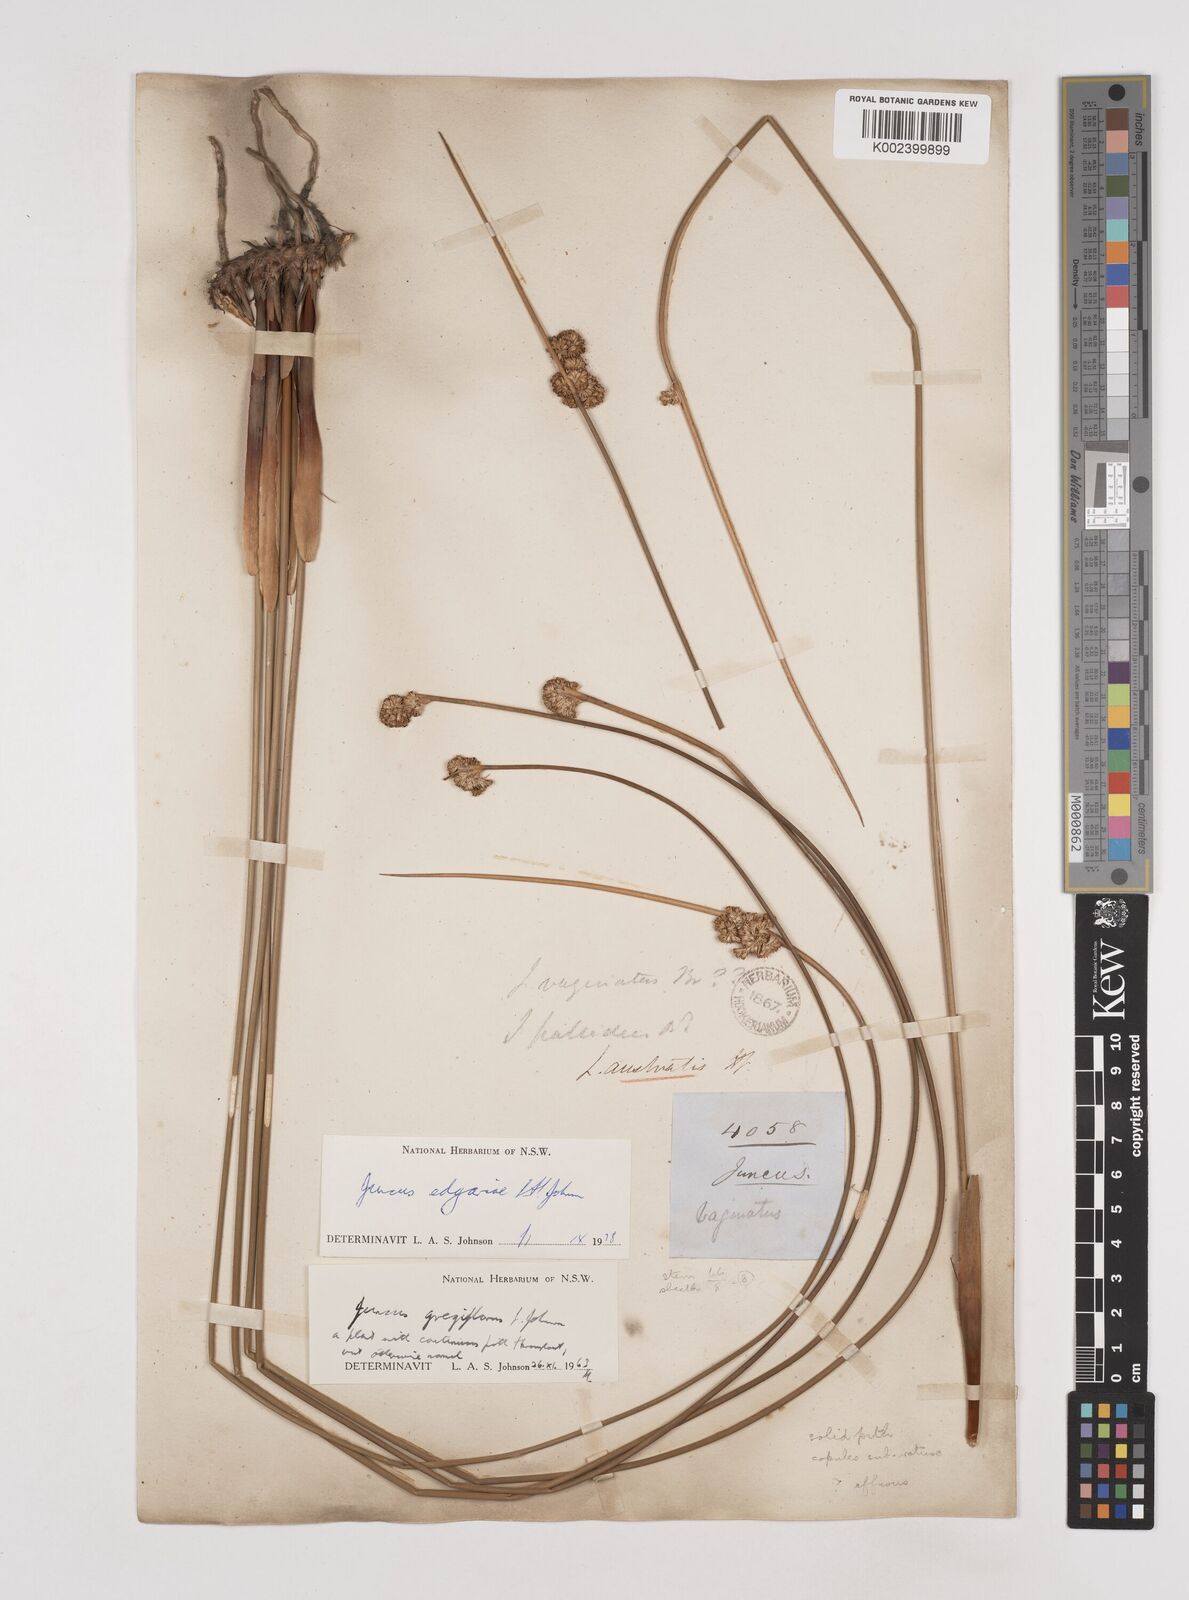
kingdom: Plantae
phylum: Tracheophyta
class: Liliopsida
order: Poales
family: Juncaceae
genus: Juncus
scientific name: Juncus edgariae
